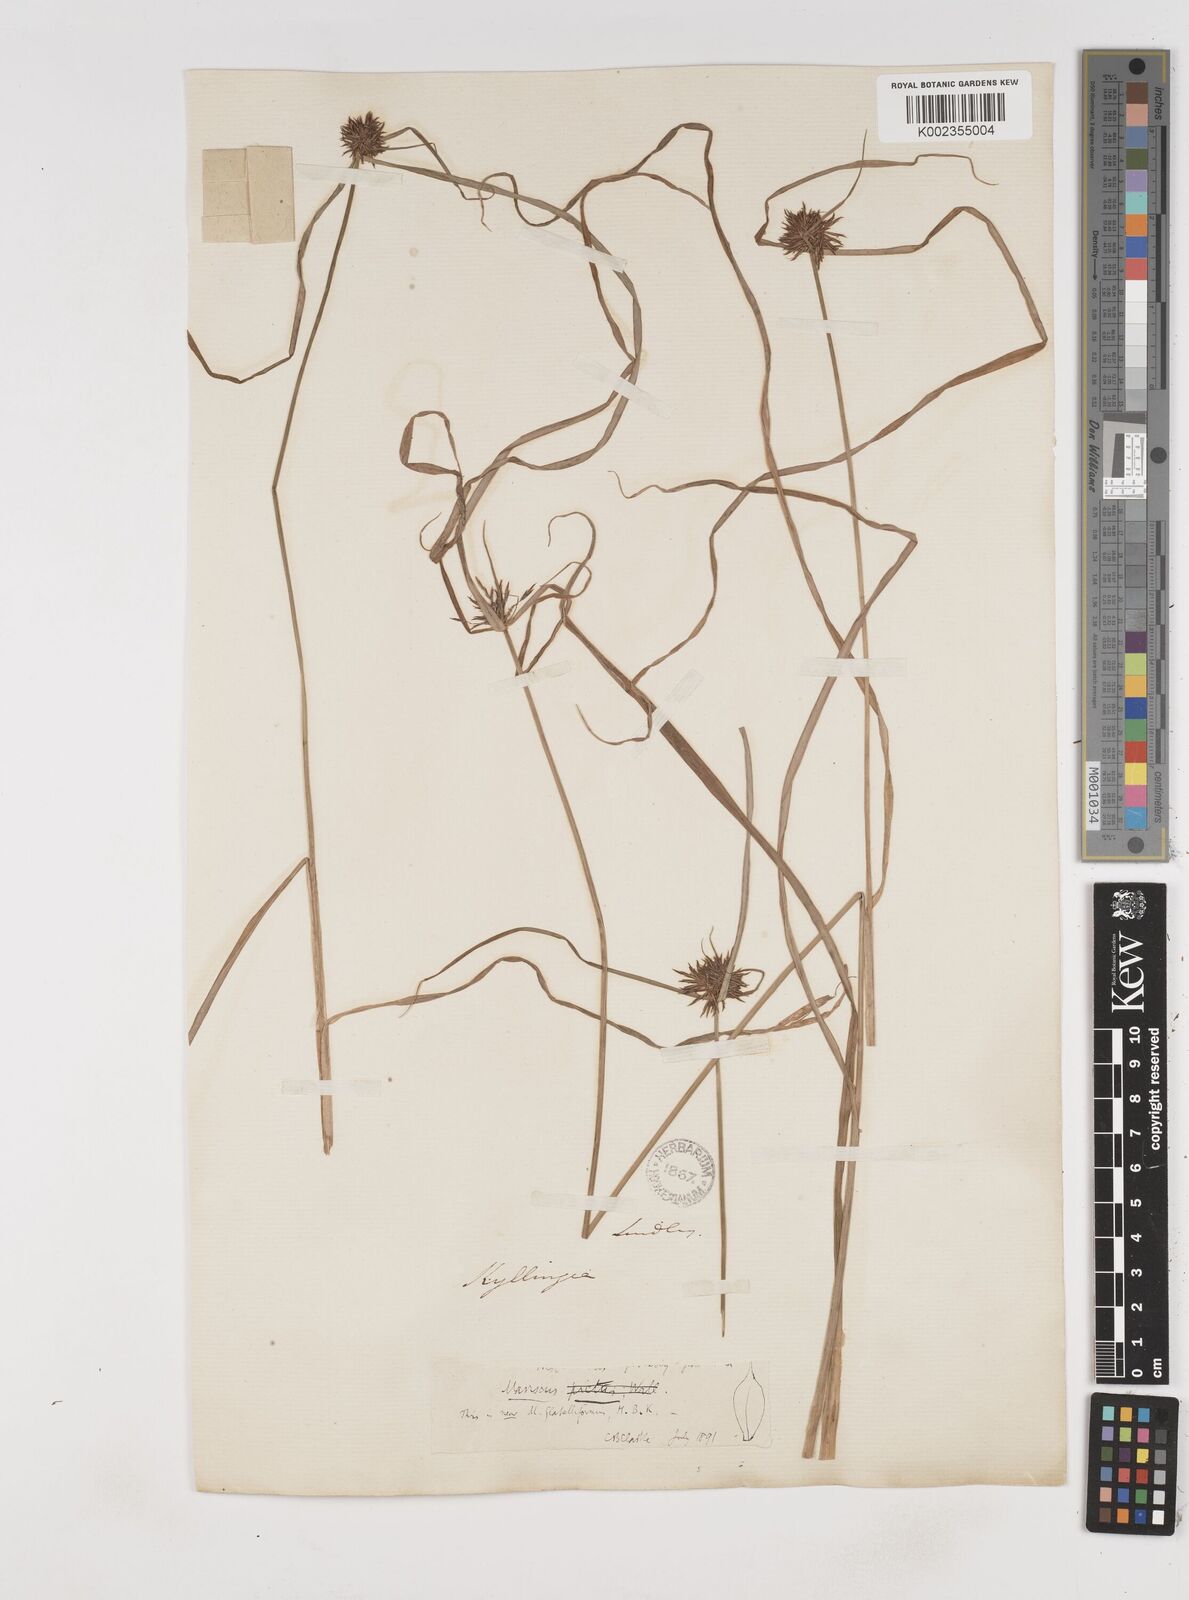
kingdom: Plantae
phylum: Tracheophyta
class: Liliopsida
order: Poales
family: Cyperaceae
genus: Cyperus
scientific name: Cyperus tenuis
